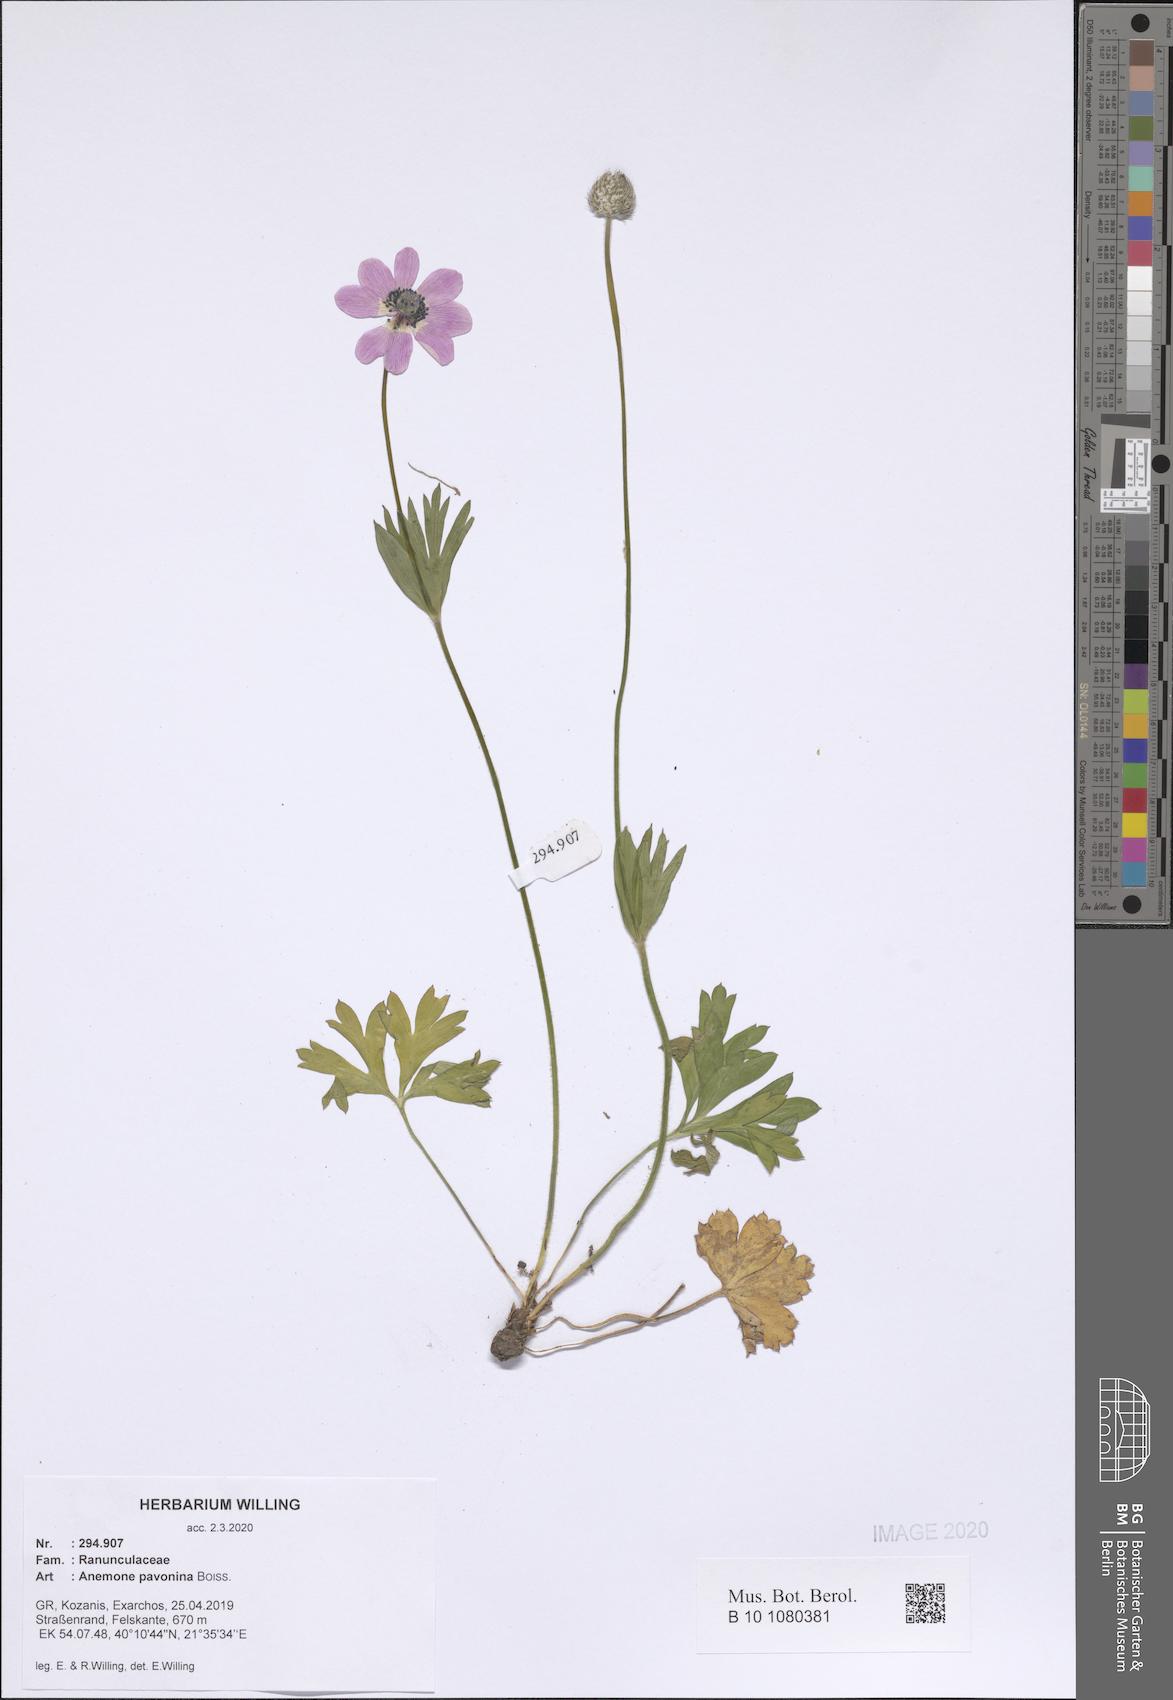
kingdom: Plantae
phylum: Tracheophyta
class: Magnoliopsida
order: Ranunculales
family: Ranunculaceae
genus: Anemone
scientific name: Anemone pavonina
